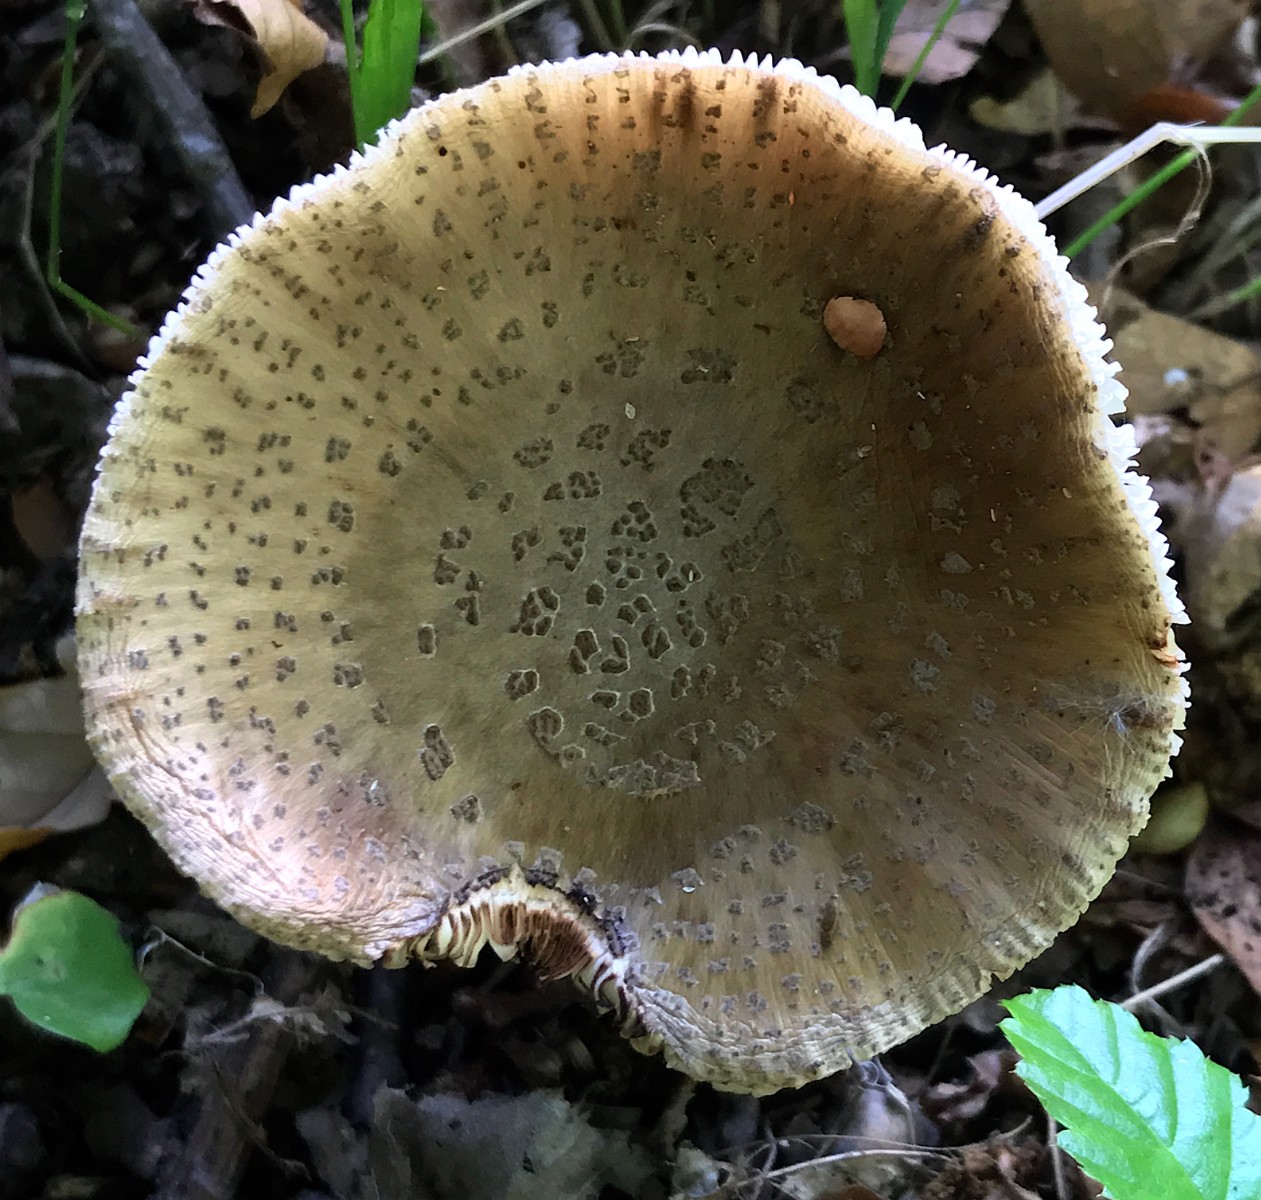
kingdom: Fungi
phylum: Basidiomycota
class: Agaricomycetes
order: Agaricales
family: Amanitaceae
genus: Amanita
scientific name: Amanita rubescens
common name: rødmende fluesvamp
